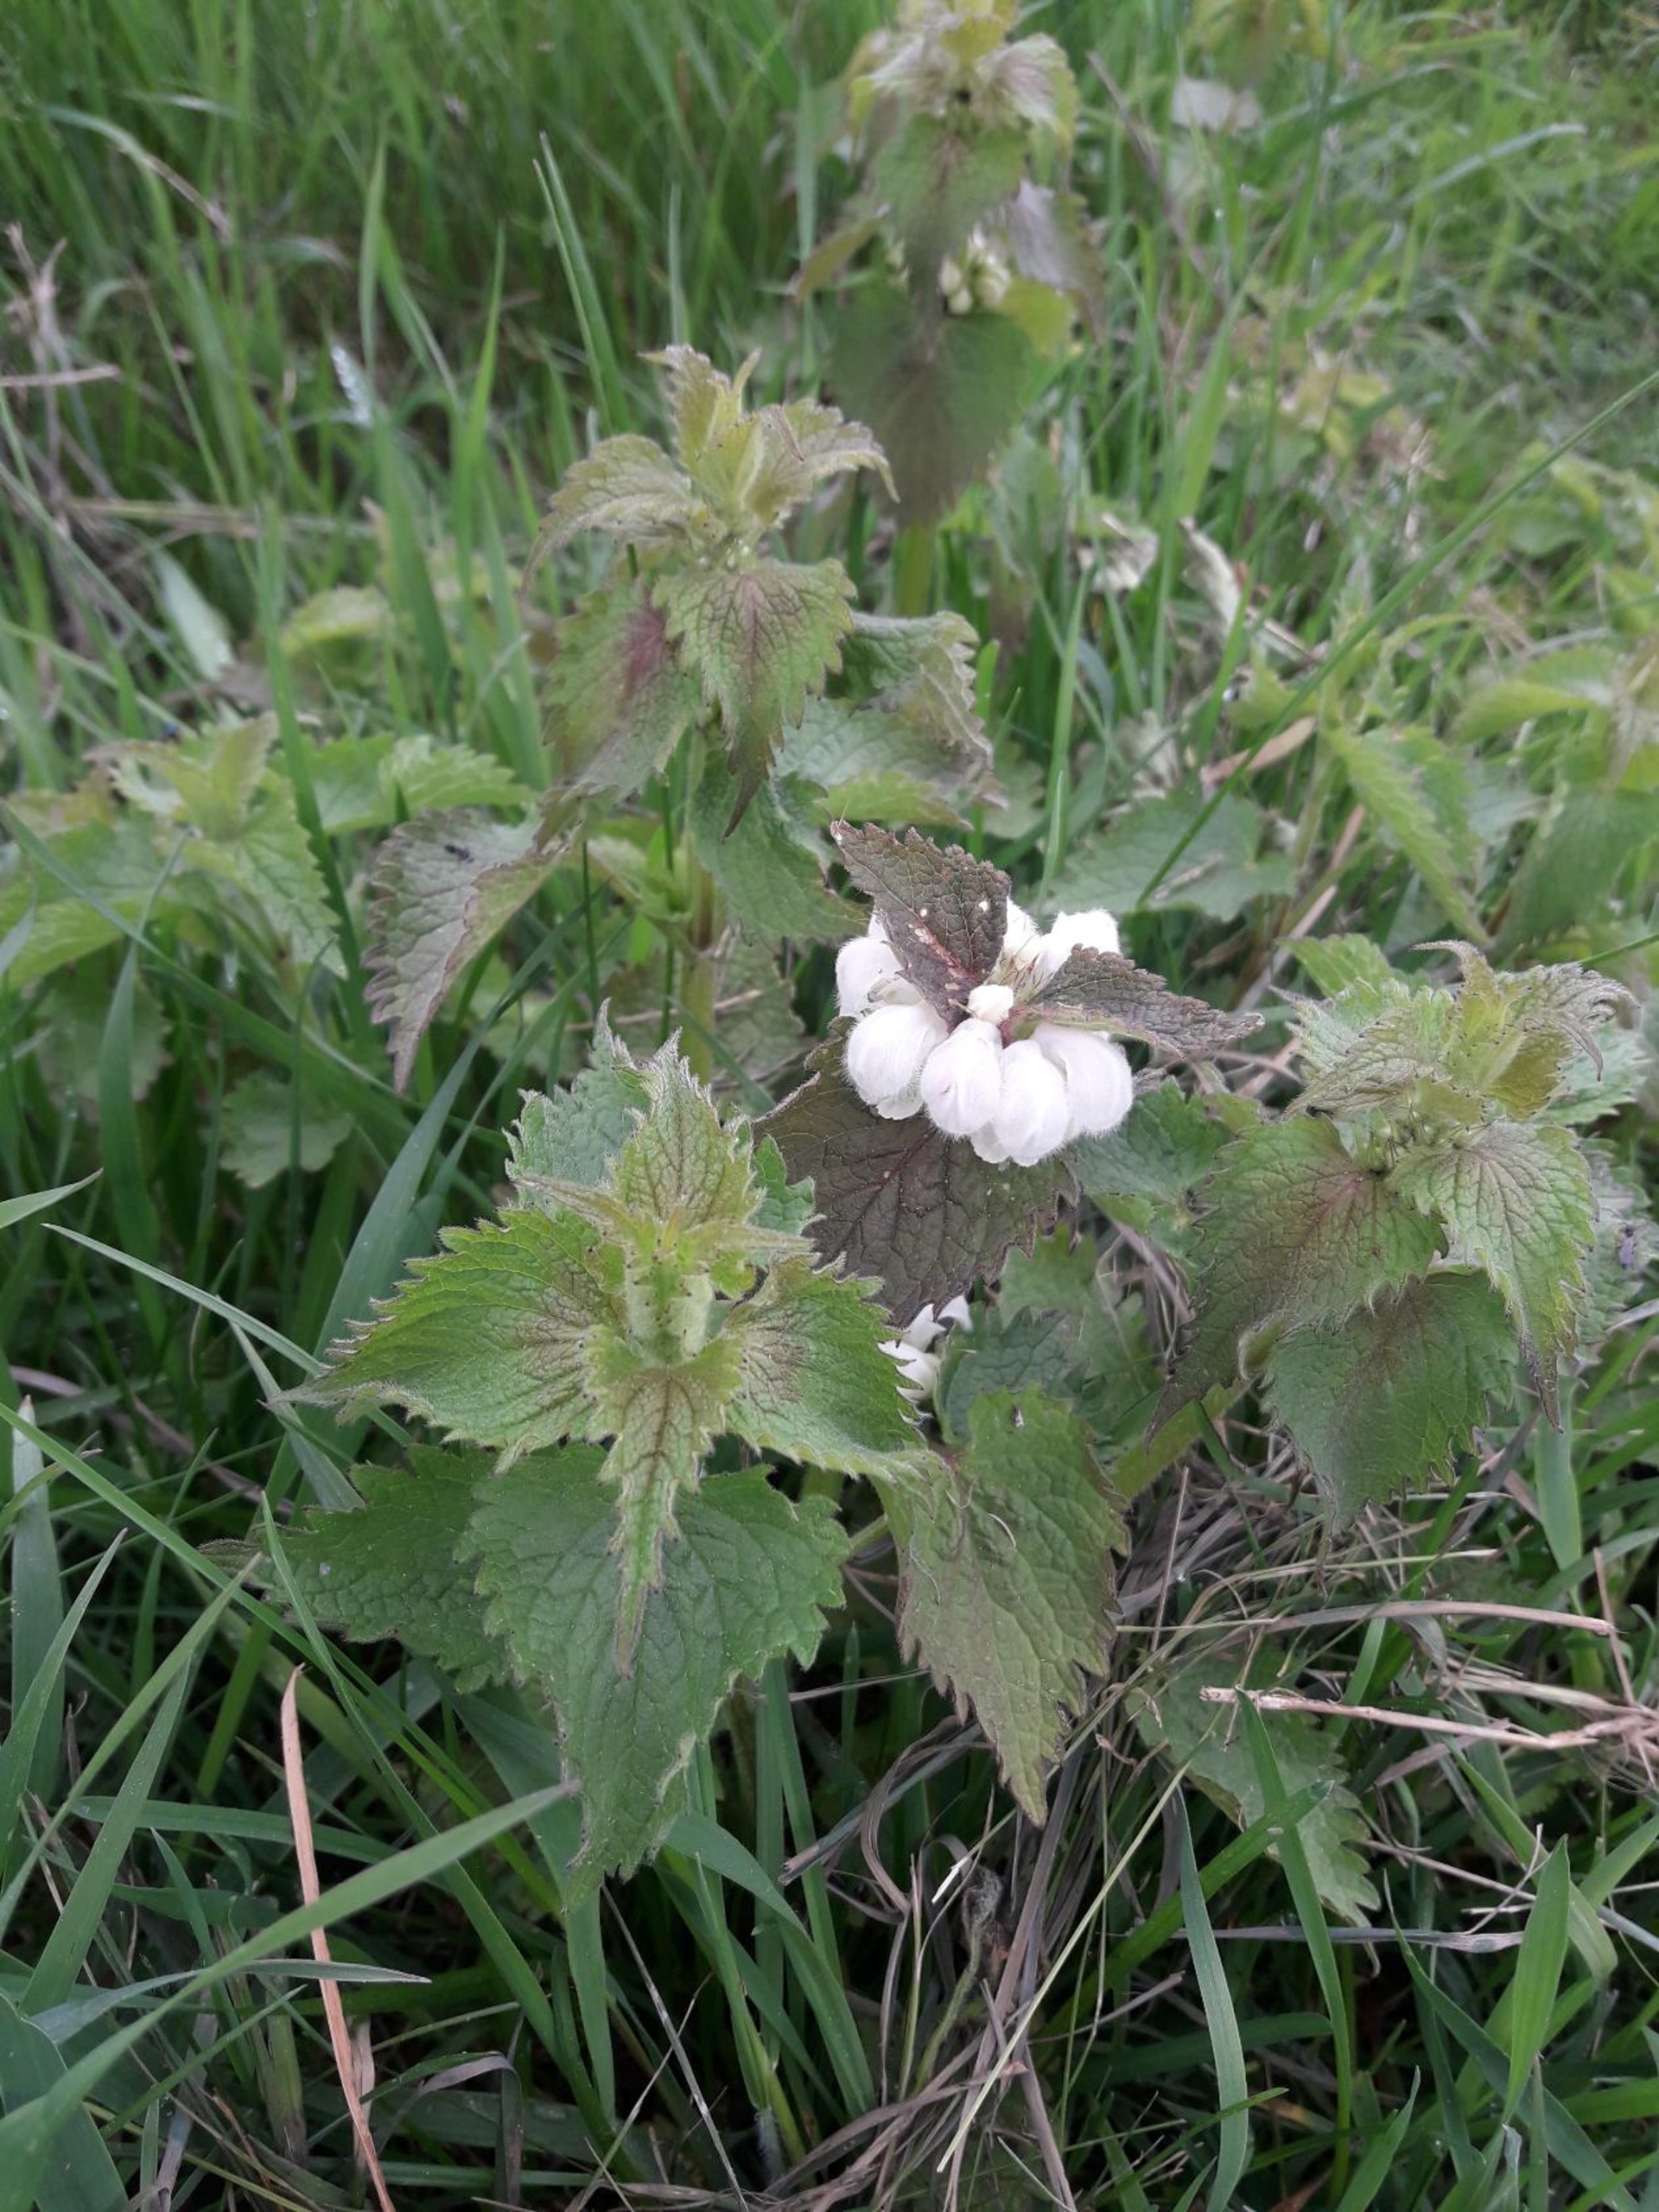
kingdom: Plantae
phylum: Tracheophyta
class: Magnoliopsida
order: Lamiales
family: Lamiaceae
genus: Lamium
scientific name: Lamium album
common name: Døvnælde
